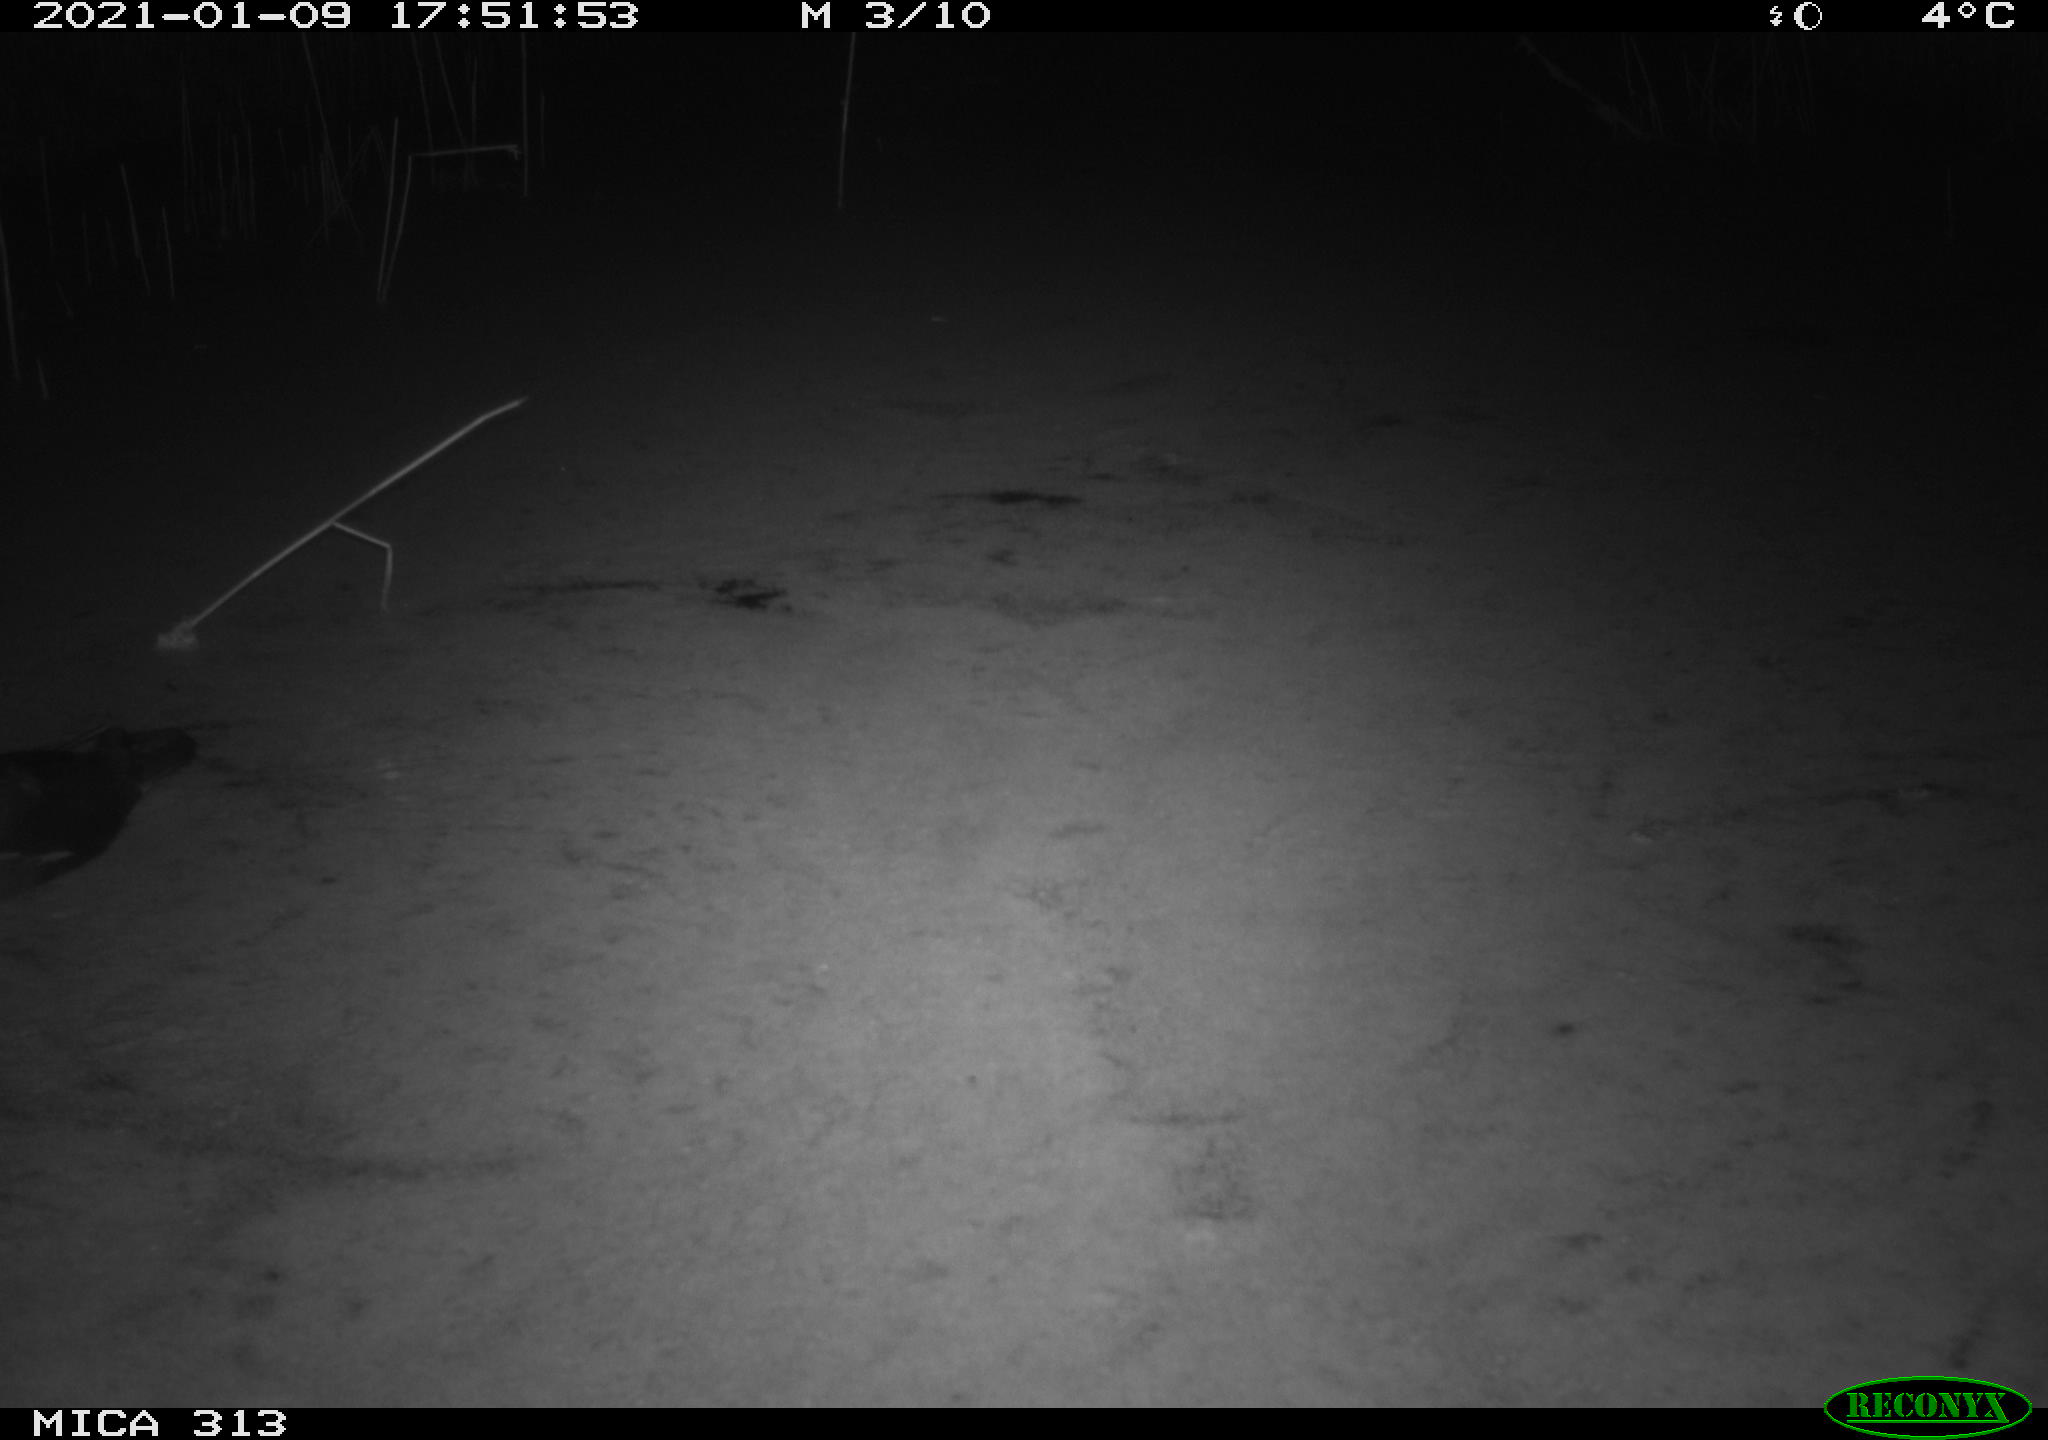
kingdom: Animalia
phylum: Chordata
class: Aves
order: Gruiformes
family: Rallidae
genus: Gallinula
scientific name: Gallinula chloropus
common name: Common moorhen
